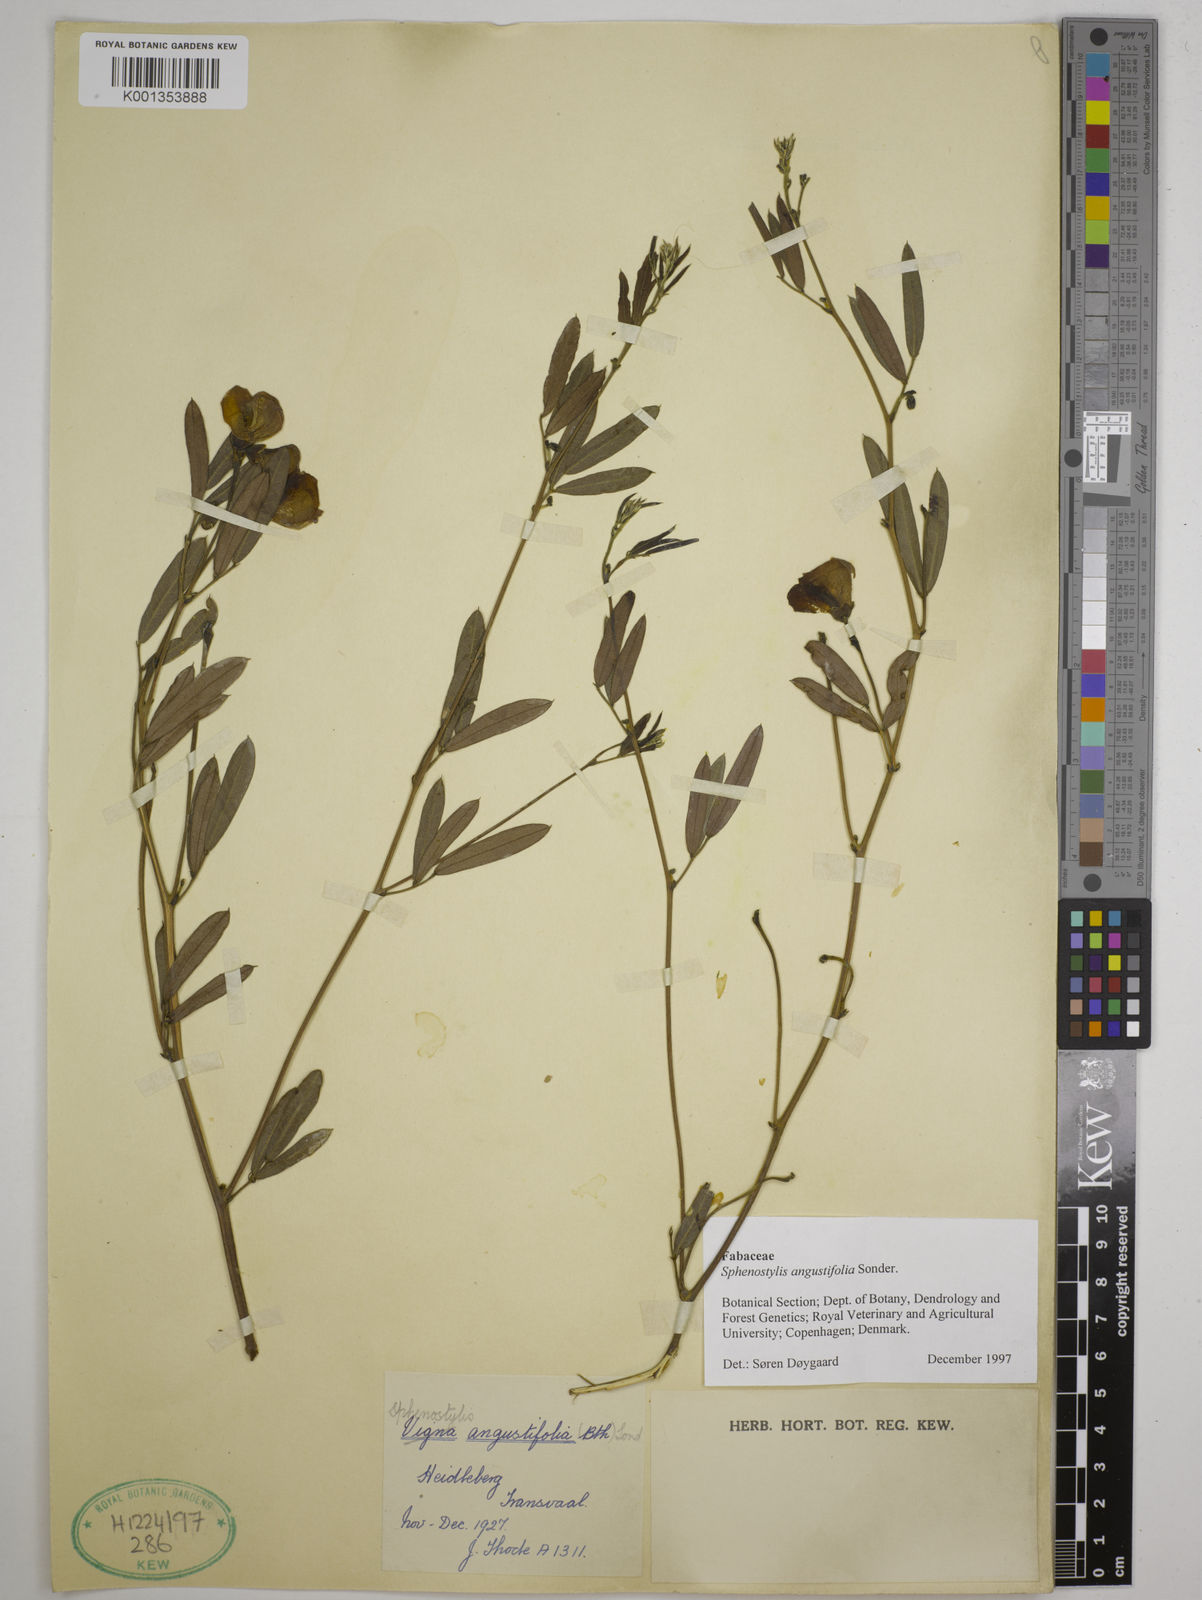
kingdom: Plantae
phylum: Tracheophyta
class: Magnoliopsida
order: Fabales
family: Fabaceae
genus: Sphenostylis
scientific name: Sphenostylis angustifolia
